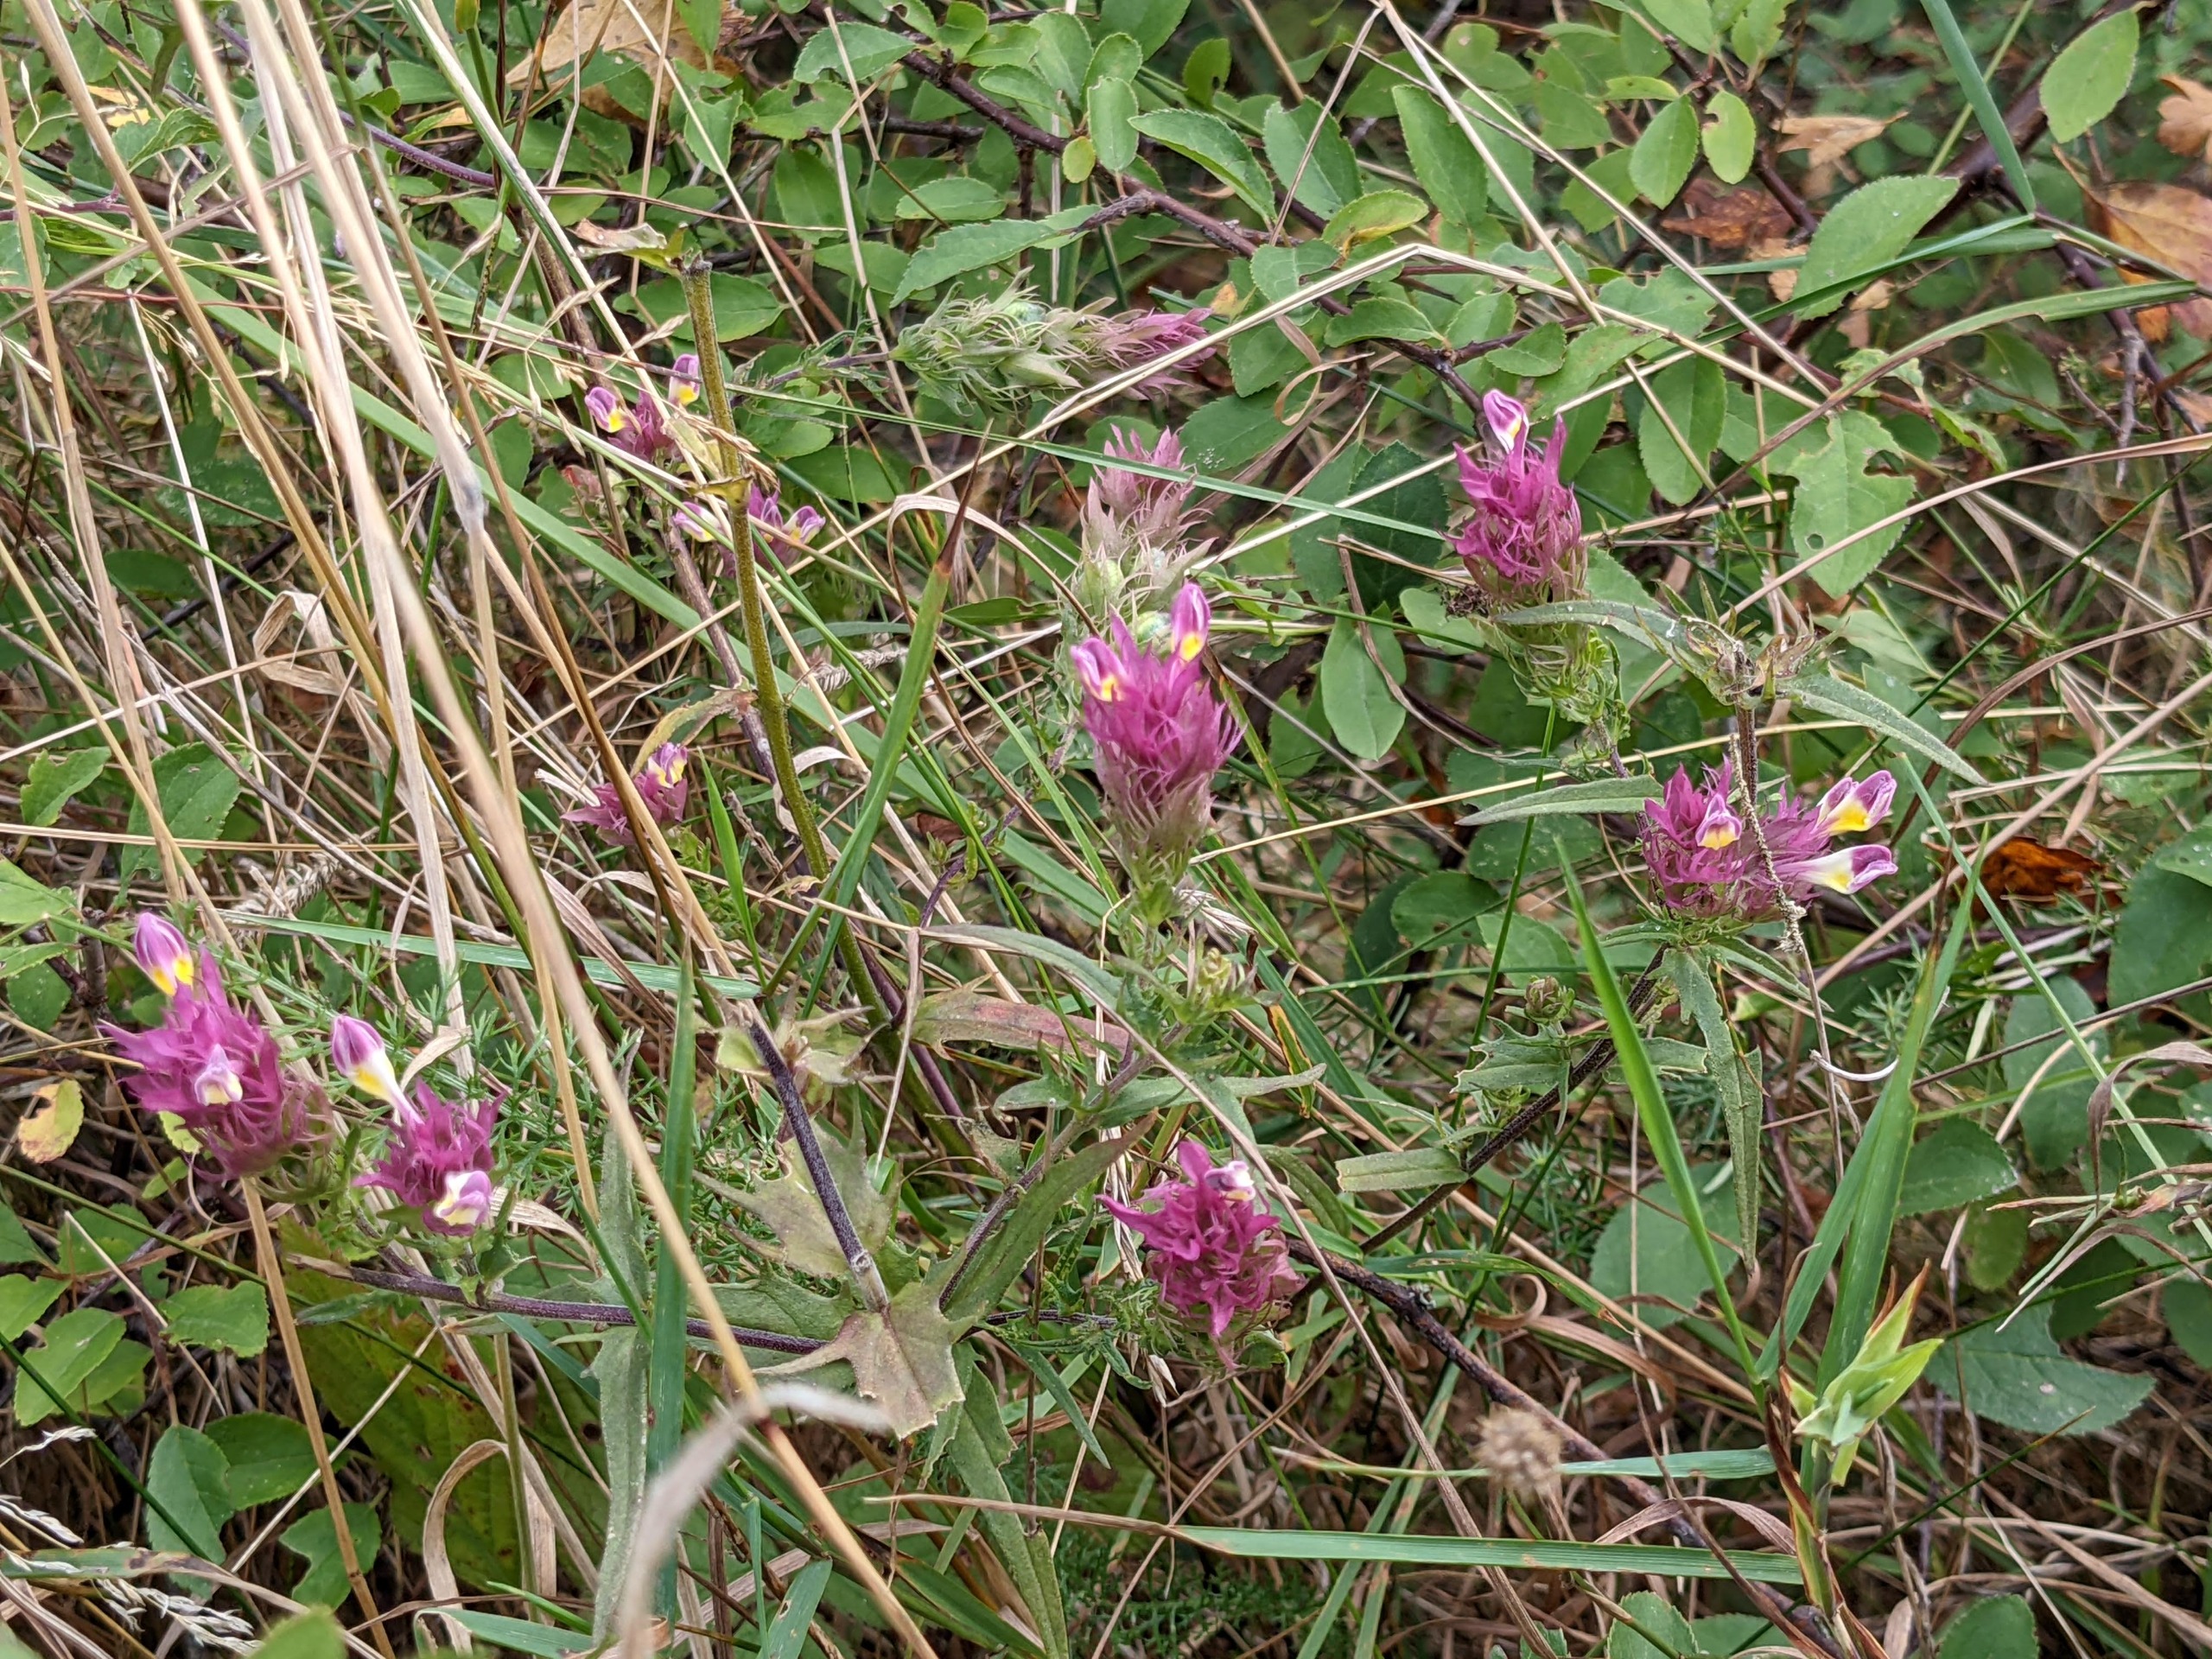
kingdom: Plantae
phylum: Tracheophyta
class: Magnoliopsida
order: Lamiales
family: Orobanchaceae
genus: Melampyrum
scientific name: Melampyrum arvense
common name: Ager-kohvede
